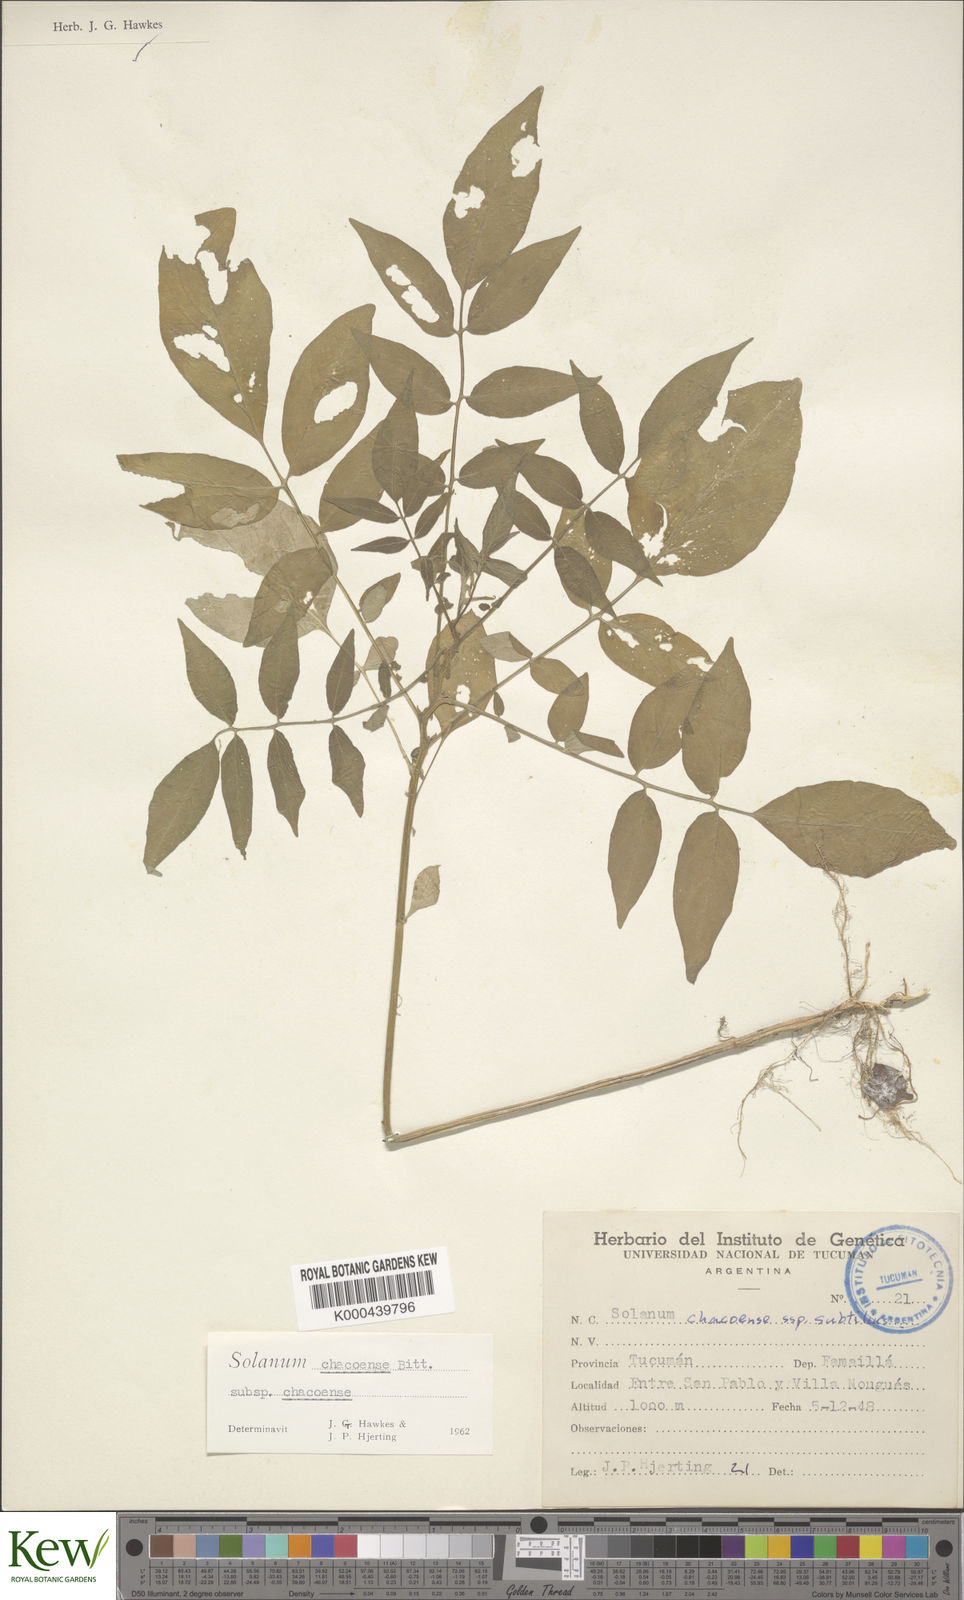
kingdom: Plantae
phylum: Tracheophyta
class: Magnoliopsida
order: Solanales
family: Solanaceae
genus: Solanum
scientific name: Solanum chacoense
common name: Chaco potato
